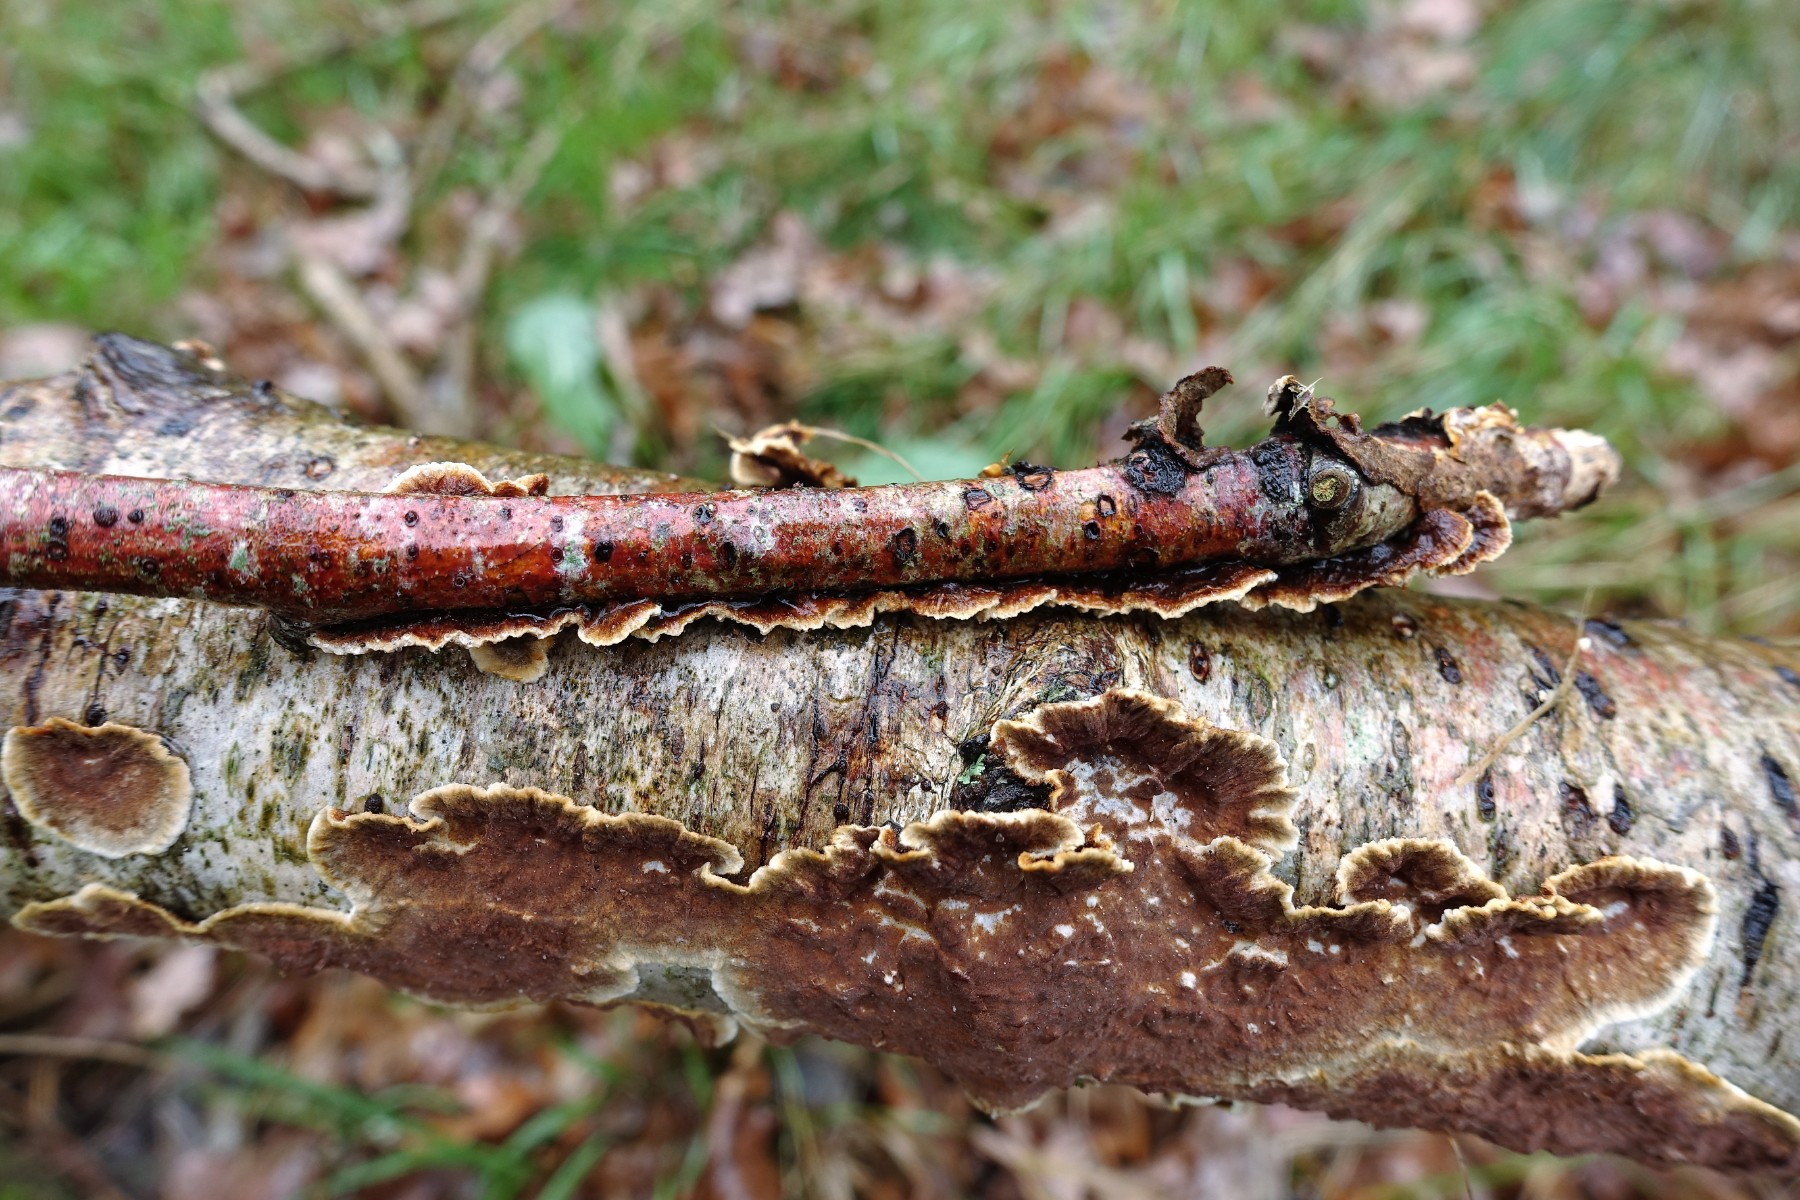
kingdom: Fungi
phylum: Basidiomycota
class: Agaricomycetes
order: Hymenochaetales
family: Hymenochaetaceae
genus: Hydnoporia
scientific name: Hydnoporia tabacina
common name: tobaksbrun ruslædersvamp
